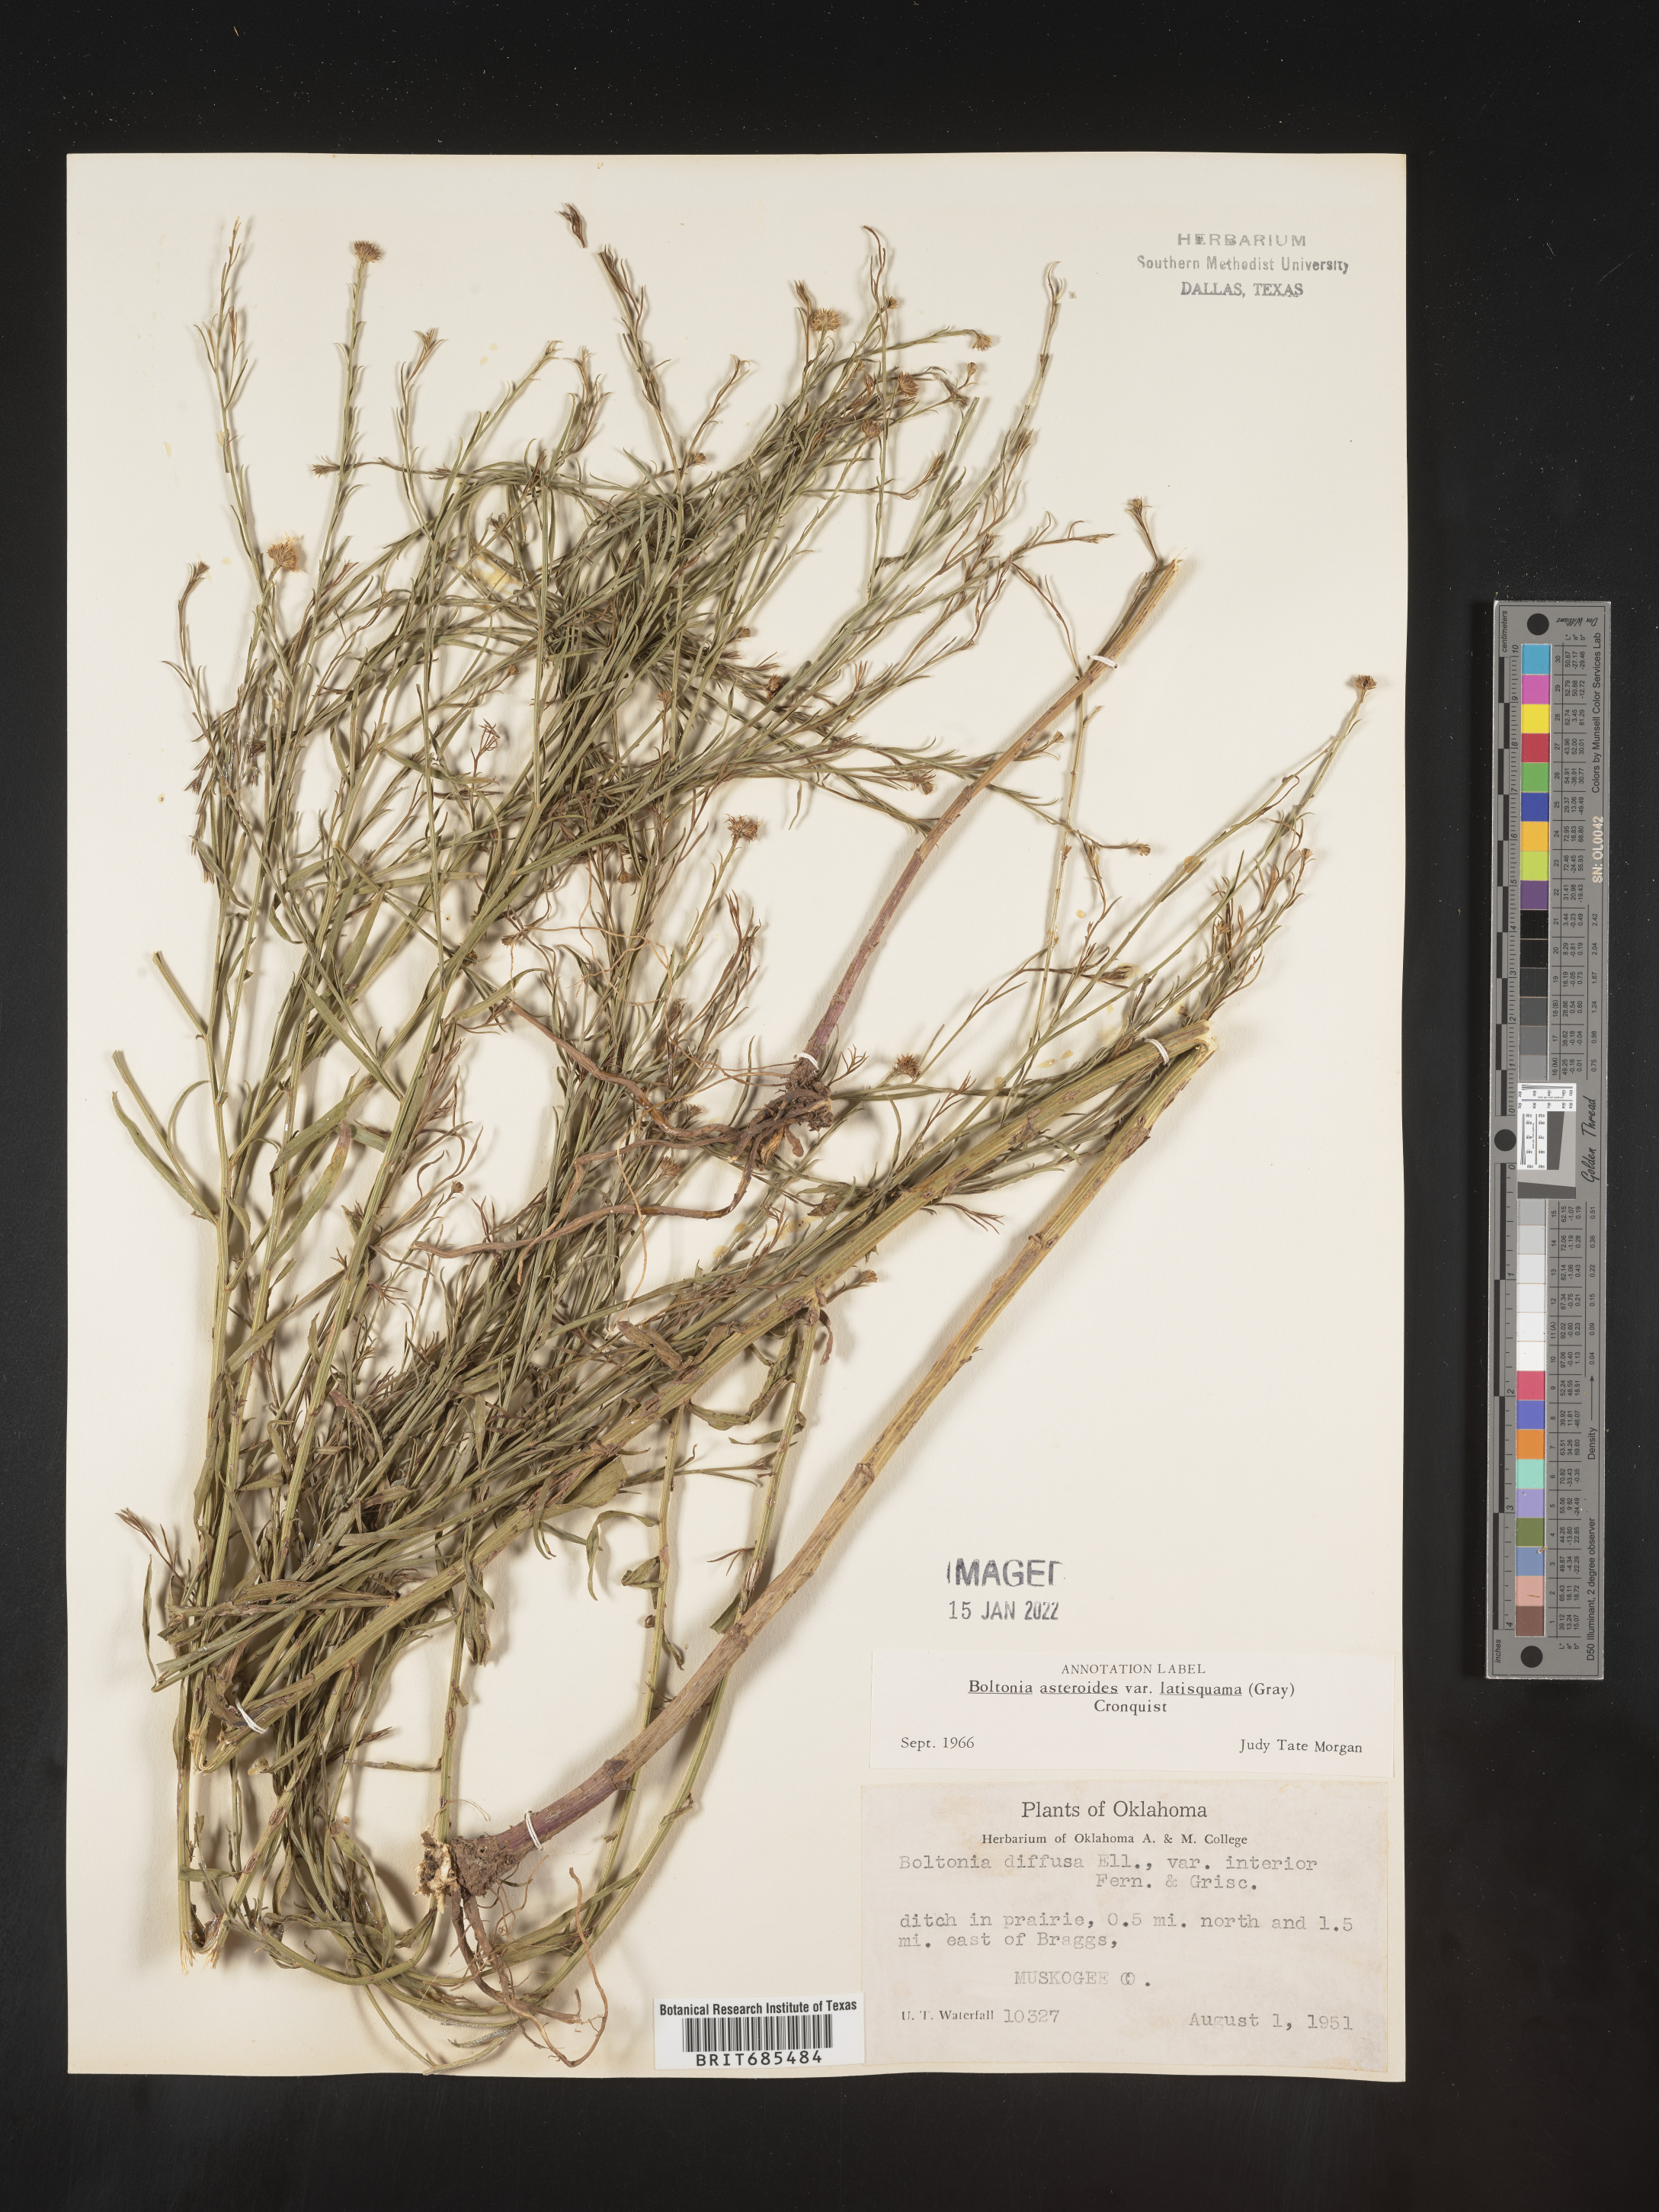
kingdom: Plantae
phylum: Tracheophyta
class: Magnoliopsida
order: Asterales
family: Asteraceae
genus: Boltonia
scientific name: Boltonia asteroides
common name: False chamomile
